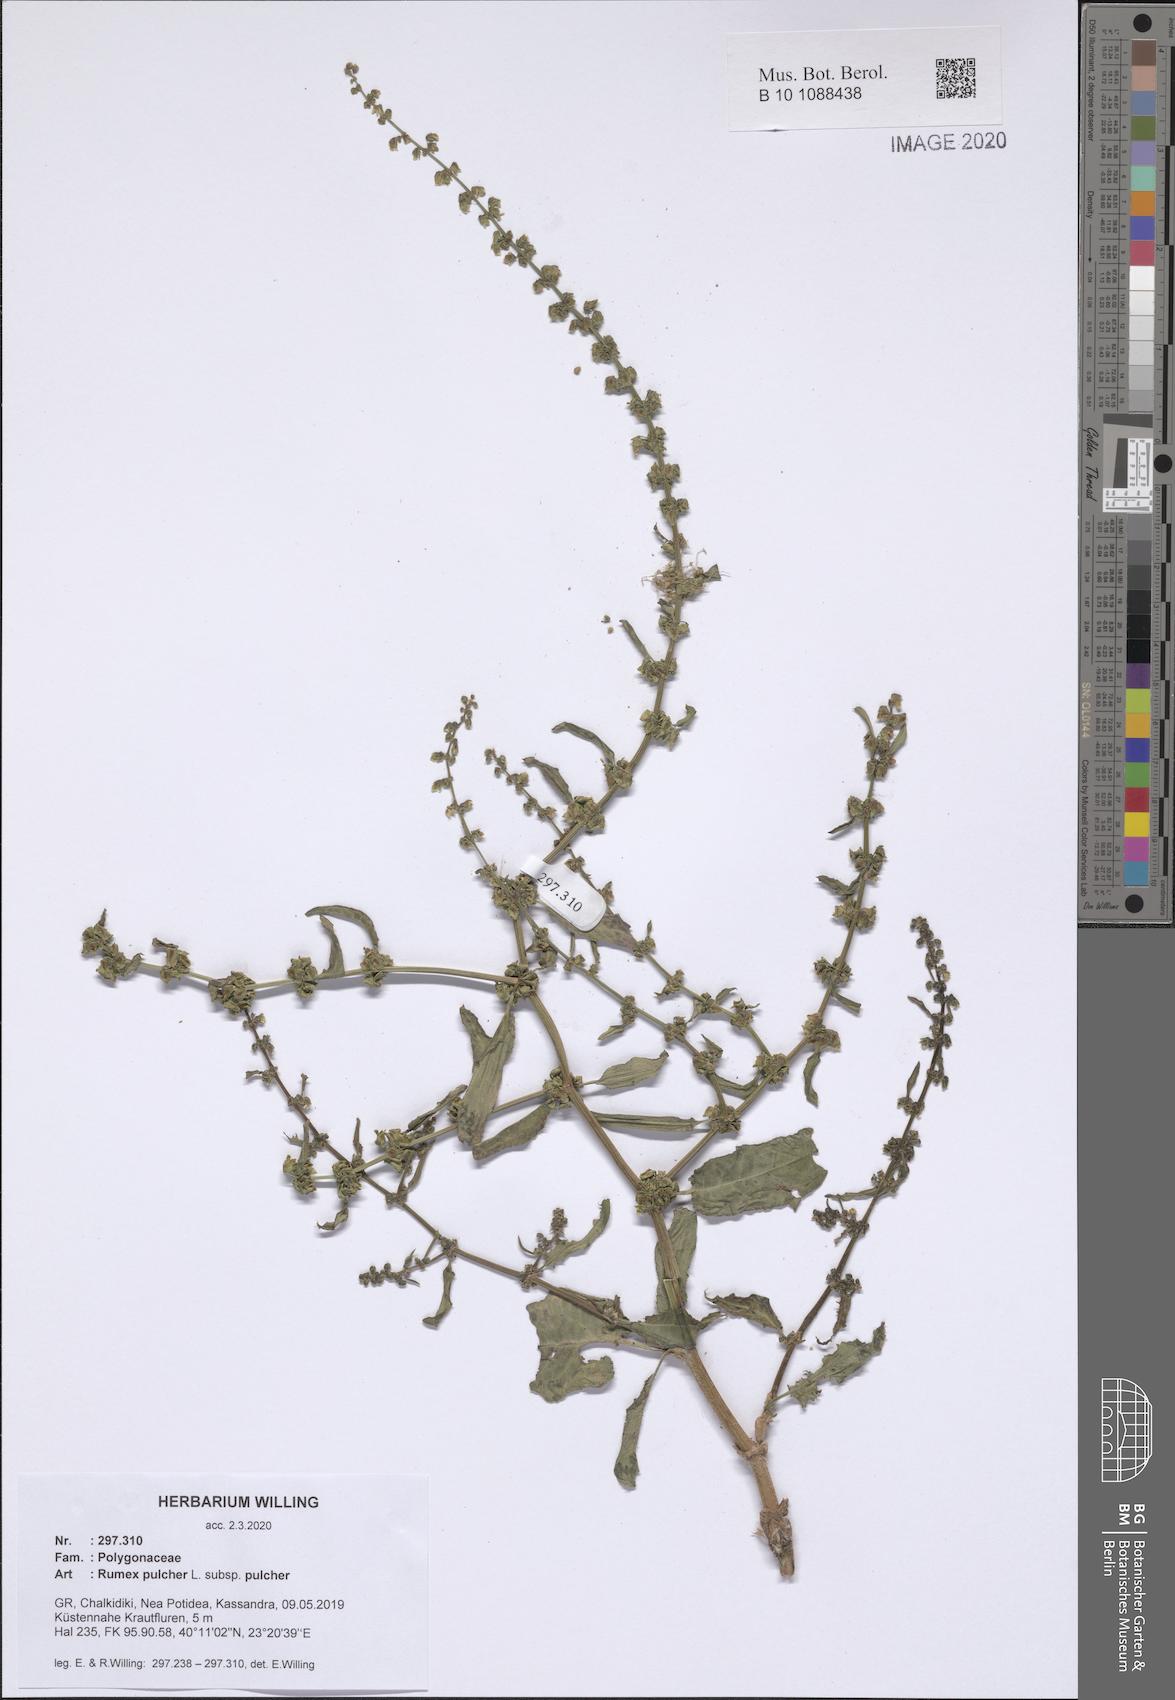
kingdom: Plantae
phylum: Tracheophyta
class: Magnoliopsida
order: Caryophyllales
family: Polygonaceae
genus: Rumex
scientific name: Rumex pulcher
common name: Fiddle dock
